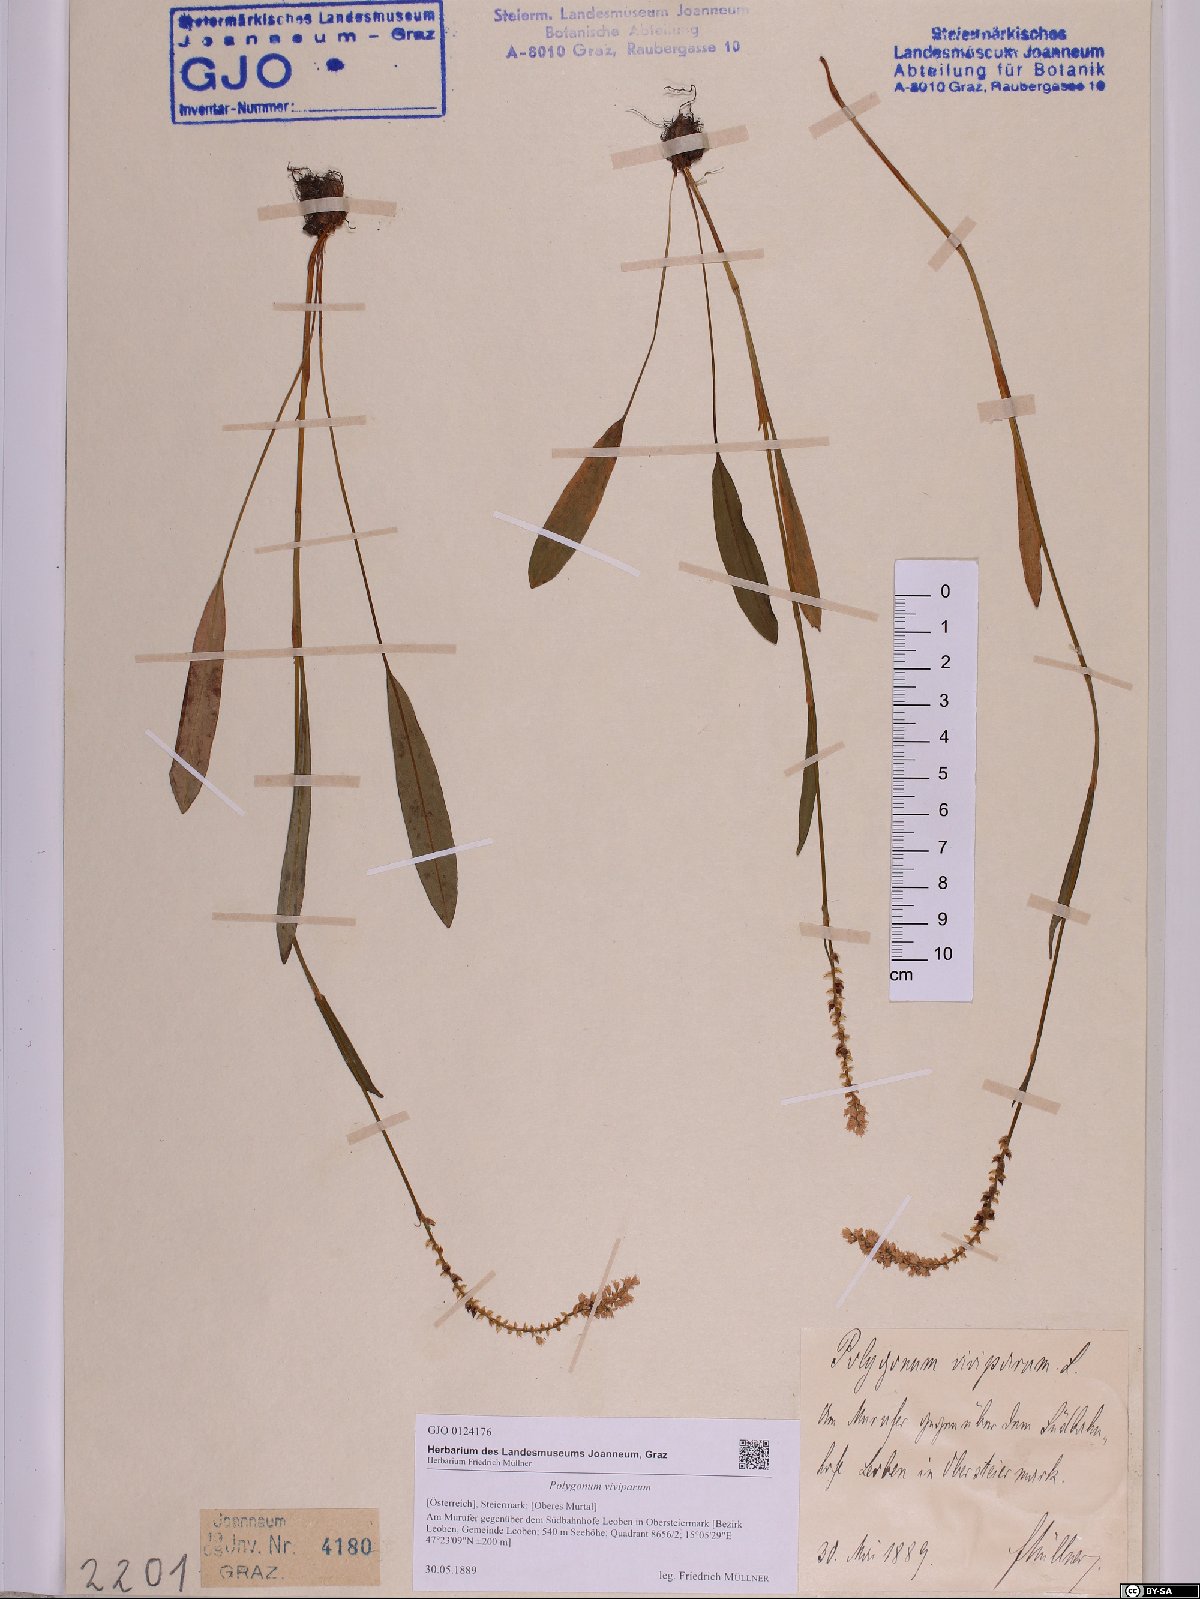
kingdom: Plantae
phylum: Tracheophyta
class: Magnoliopsida
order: Caryophyllales
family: Polygonaceae
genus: Bistorta
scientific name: Bistorta vivipara
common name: Alpine bistort
